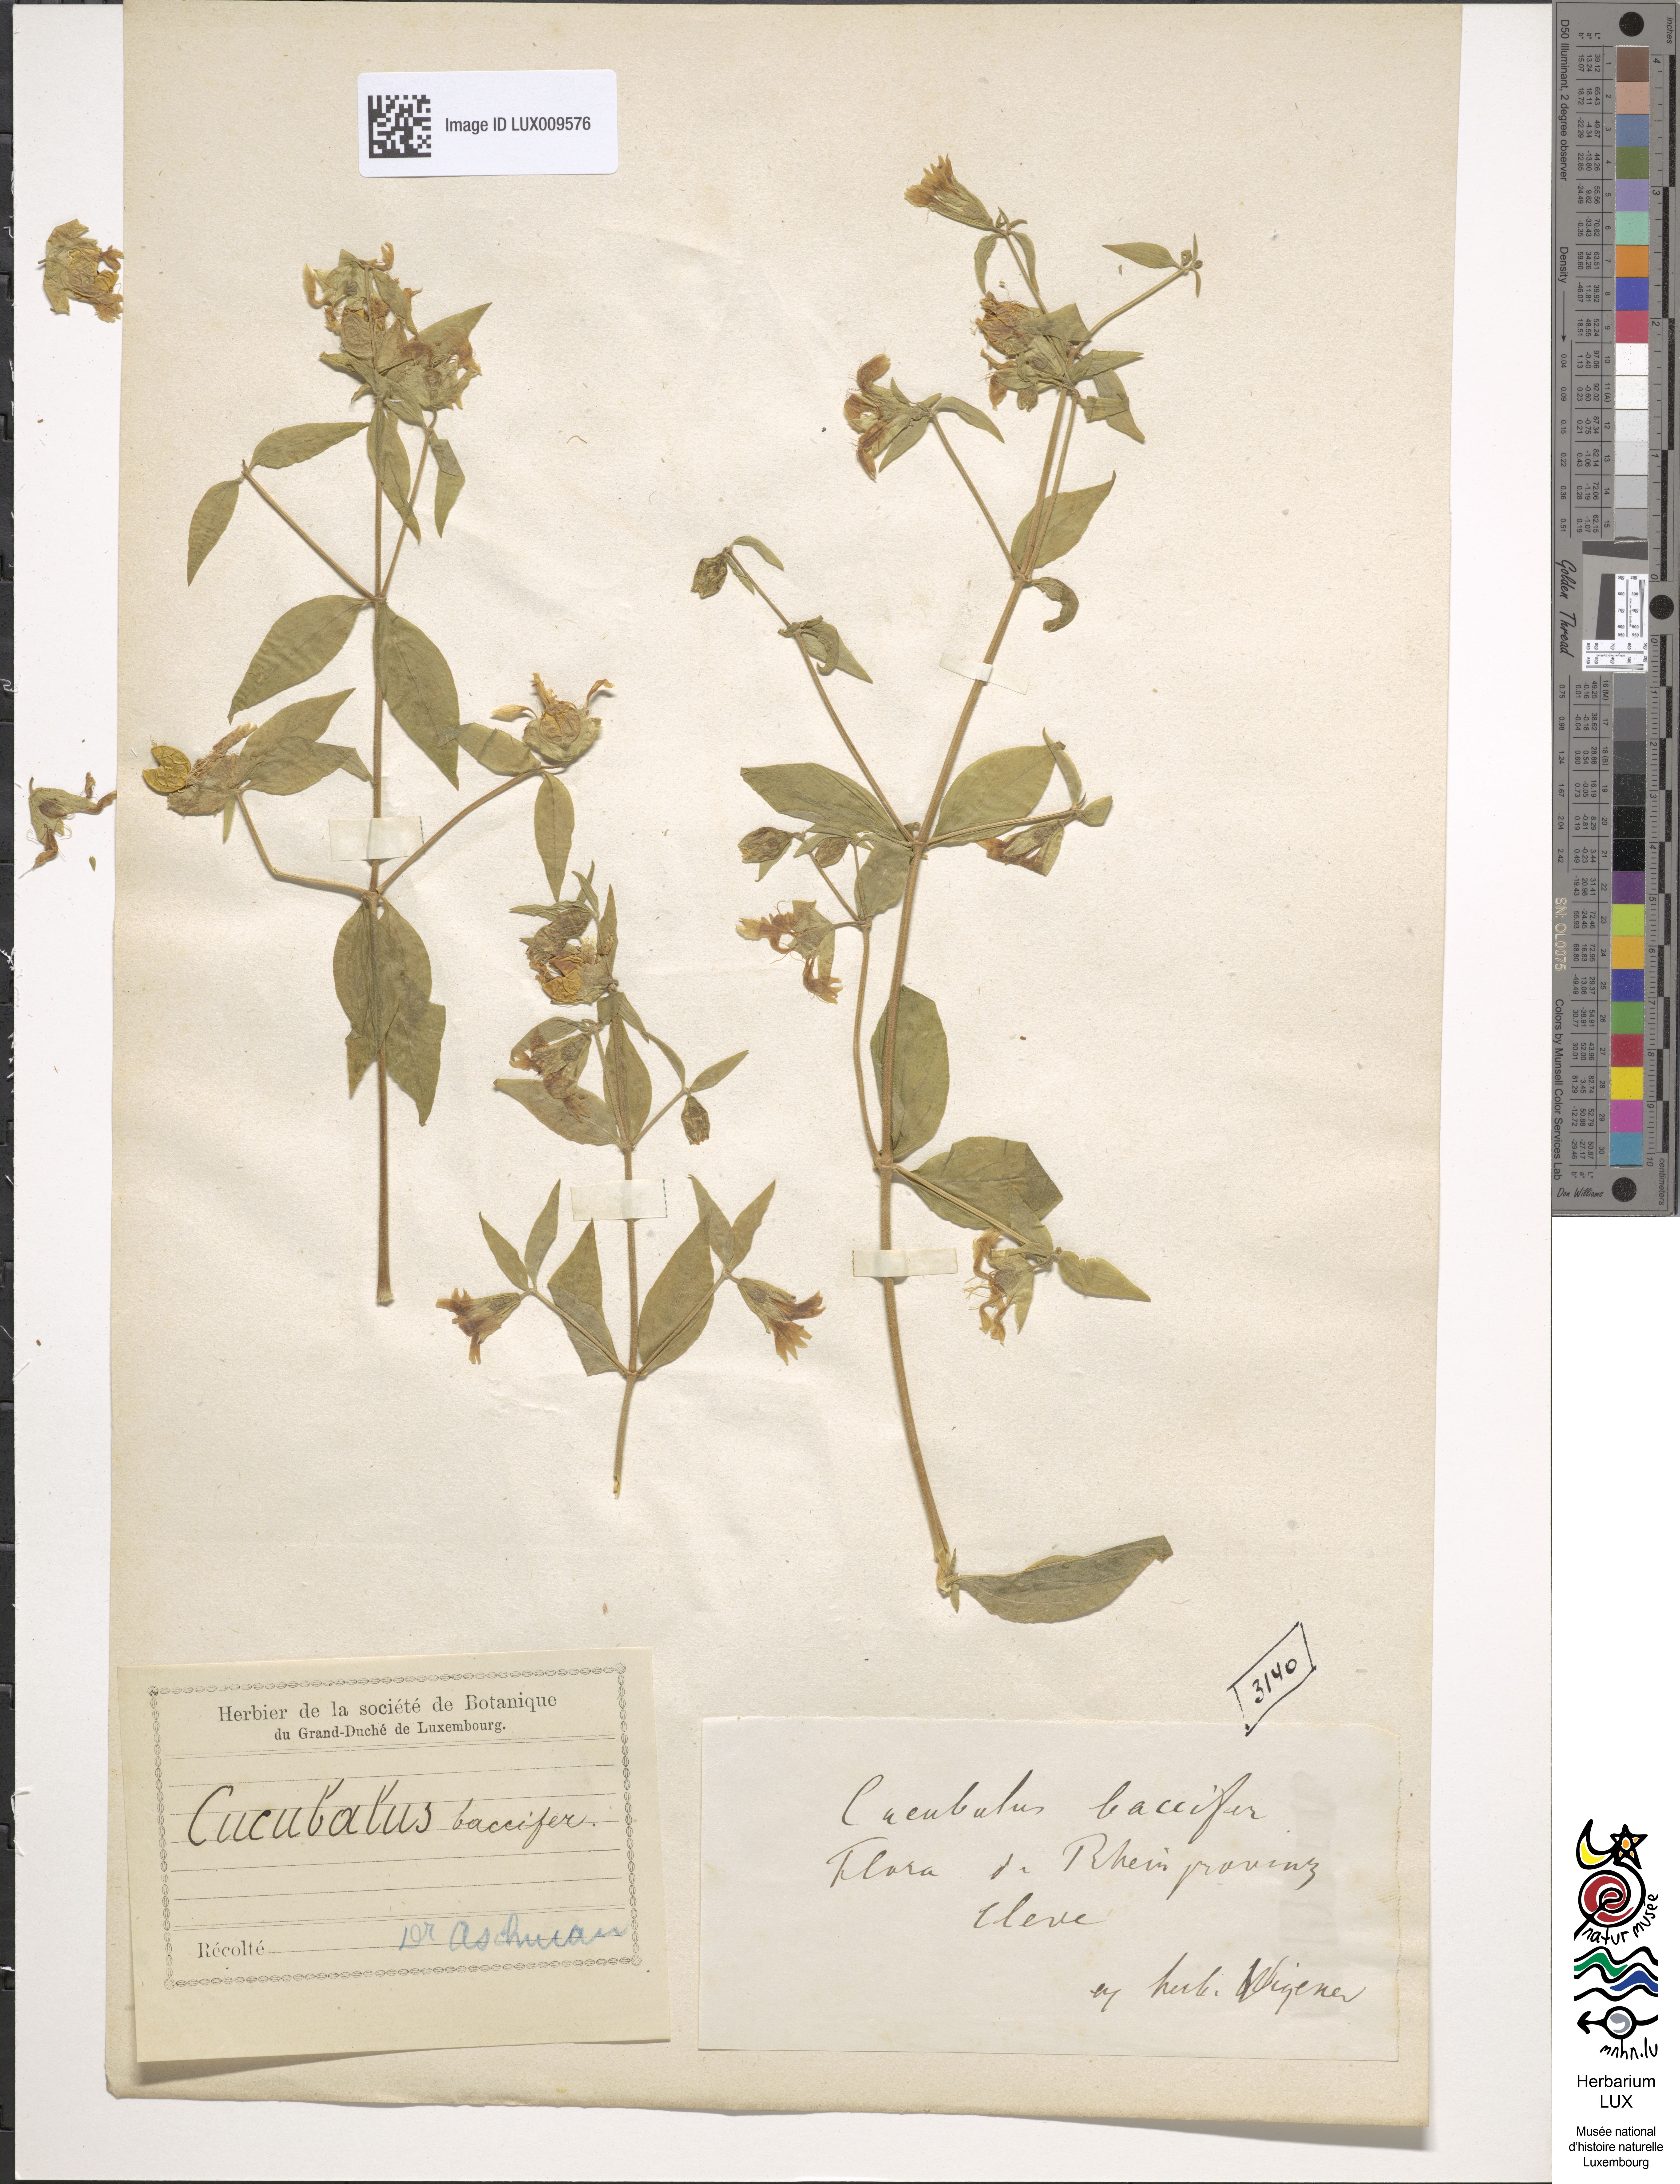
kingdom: Plantae
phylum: Tracheophyta
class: Magnoliopsida
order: Caryophyllales
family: Caryophyllaceae
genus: Silene
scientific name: Silene baccifera
